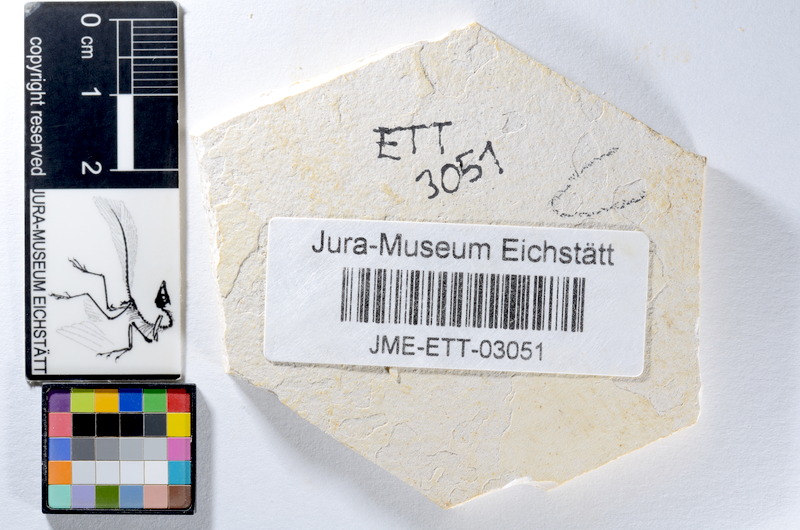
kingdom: Animalia
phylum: Chordata
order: Salmoniformes
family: Orthogonikleithridae
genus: Orthogonikleithrus
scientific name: Orthogonikleithrus hoelli
